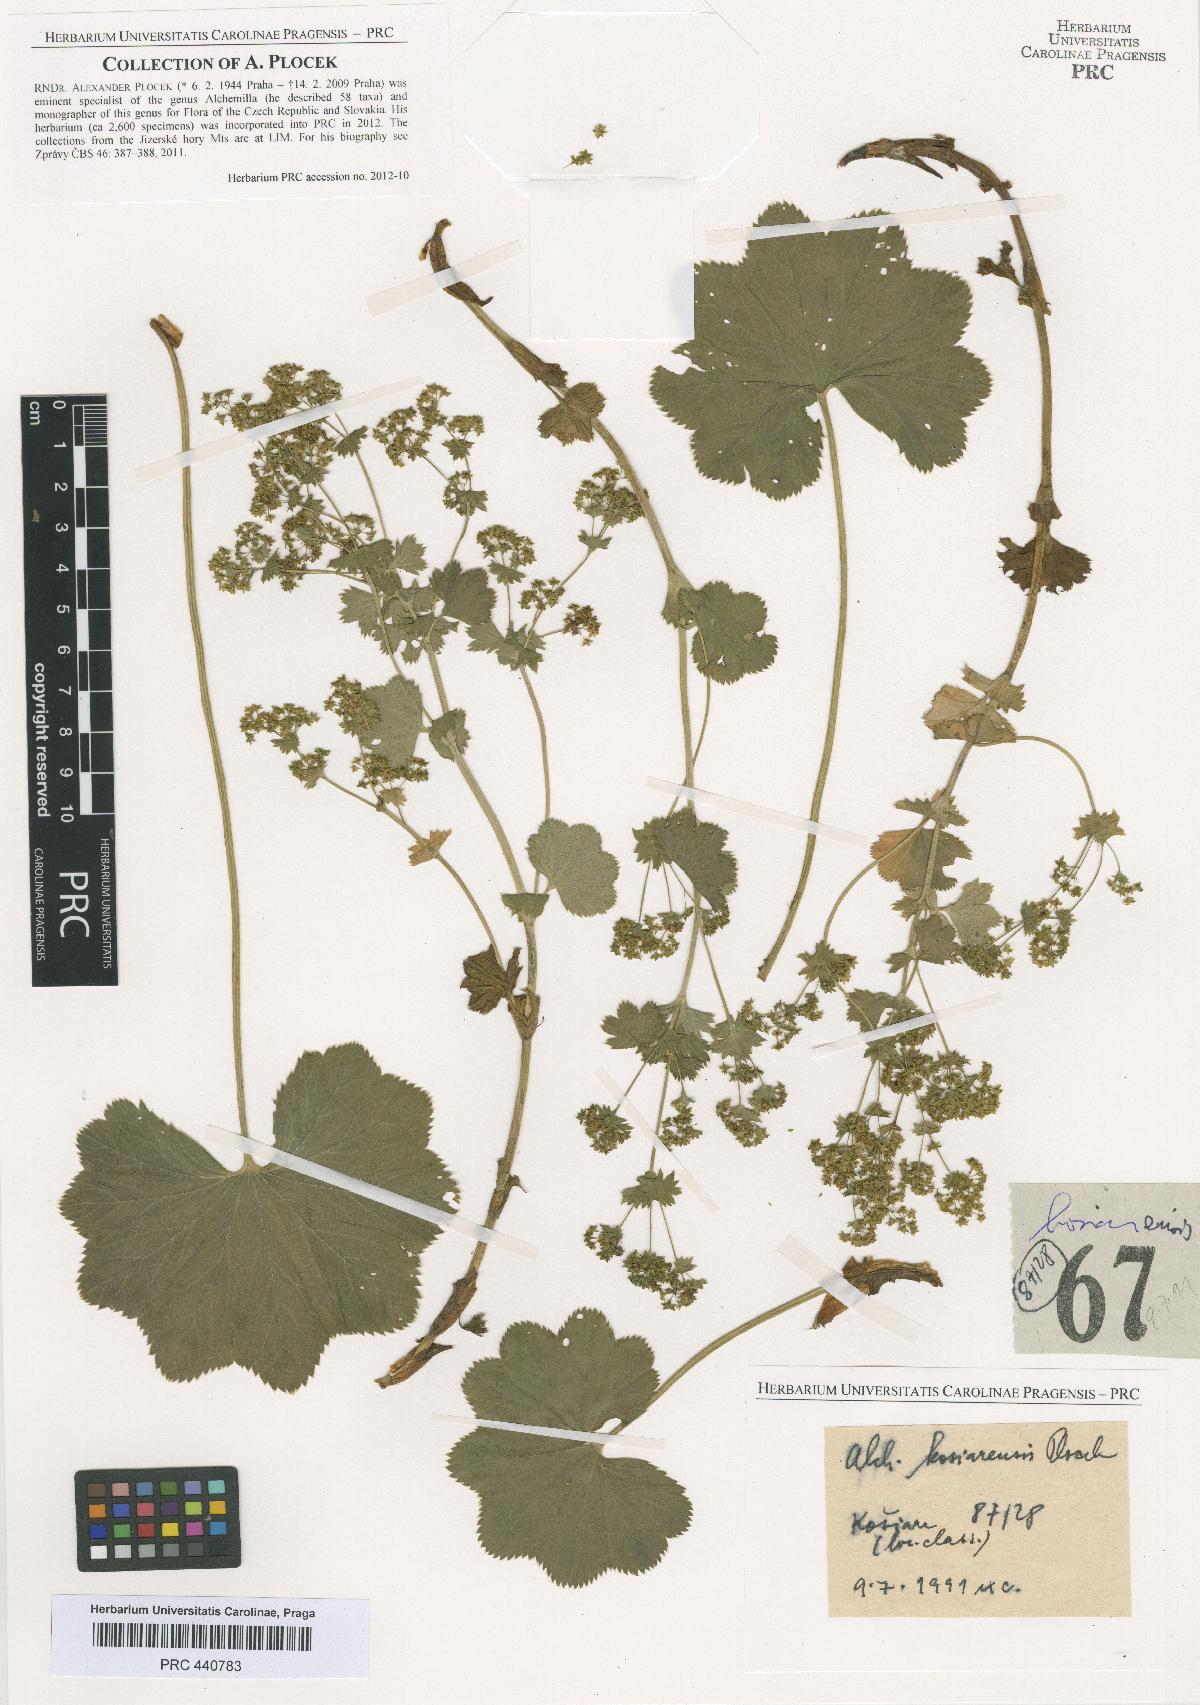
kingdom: Plantae
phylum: Tracheophyta
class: Magnoliopsida
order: Rosales
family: Rosaceae
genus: Alchemilla
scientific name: Alchemilla kosiarensis
